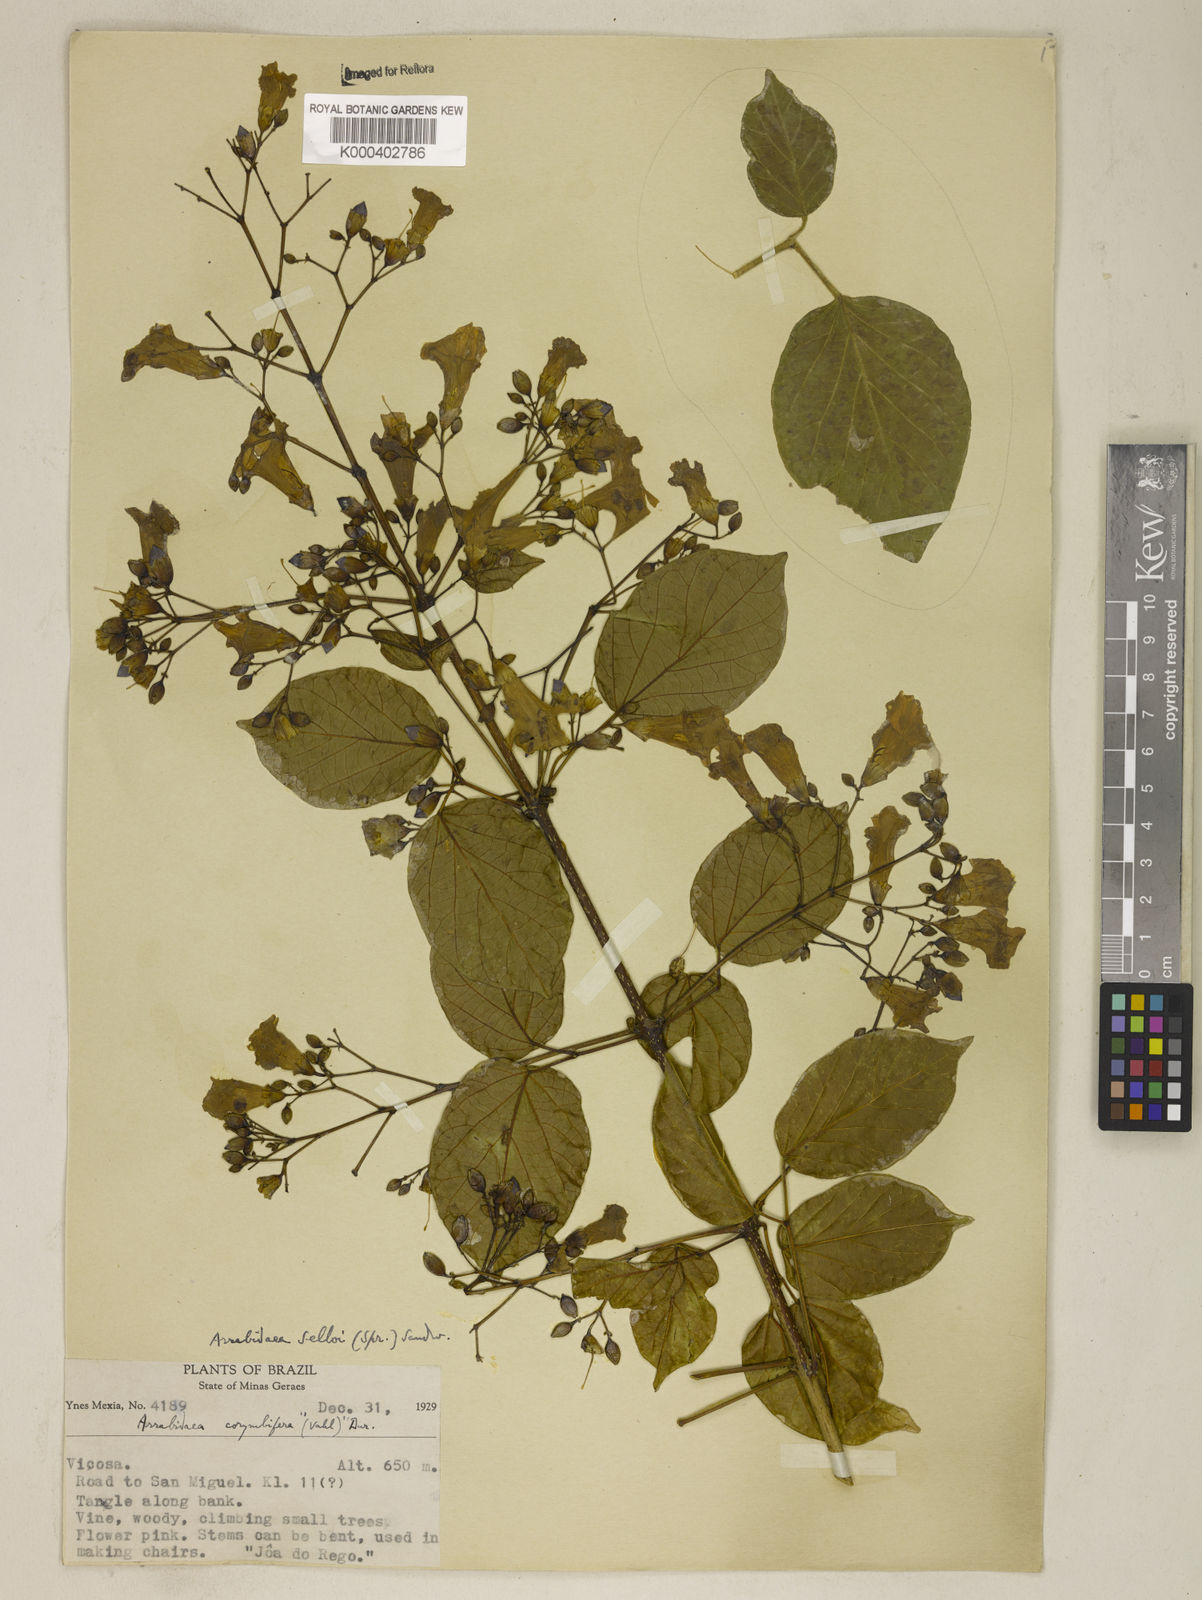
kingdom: Plantae
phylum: Tracheophyta
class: Magnoliopsida
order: Lamiales
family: Bignoniaceae
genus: Tanaecium
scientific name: Tanaecium selloi
